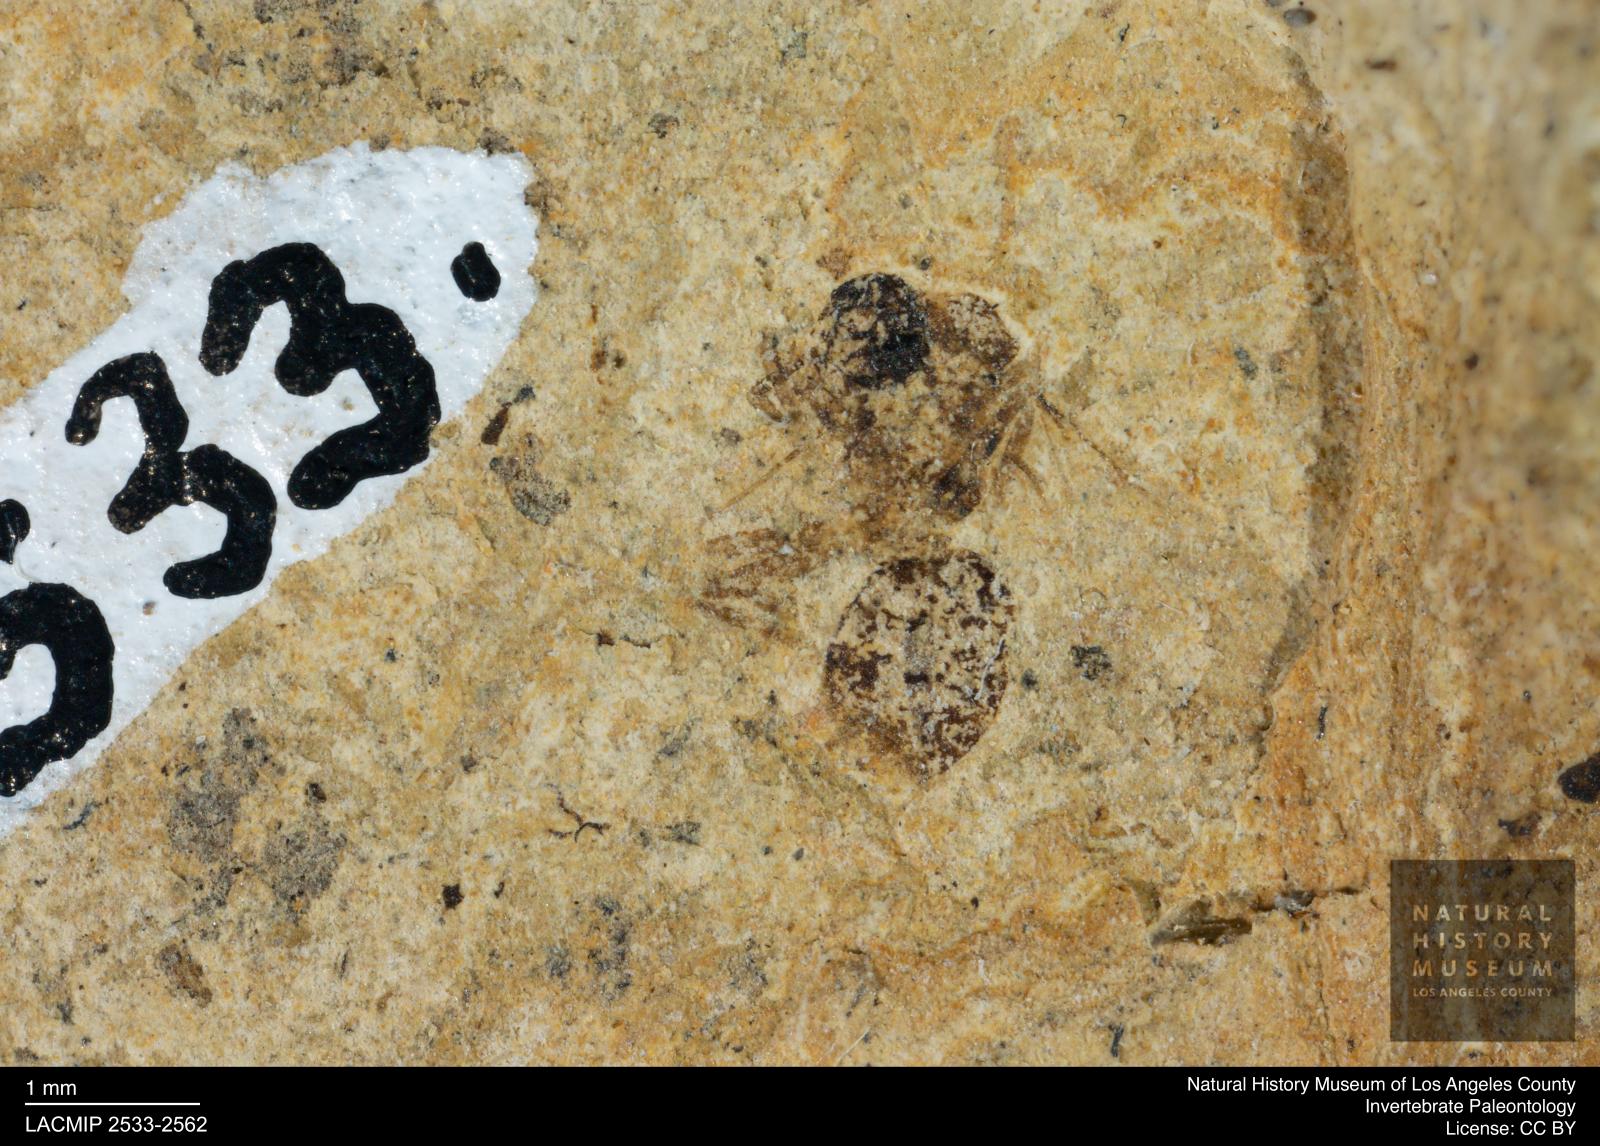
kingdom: Animalia
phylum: Arthropoda
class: Insecta
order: Hymenoptera
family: Formicidae
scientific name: Formicidae
